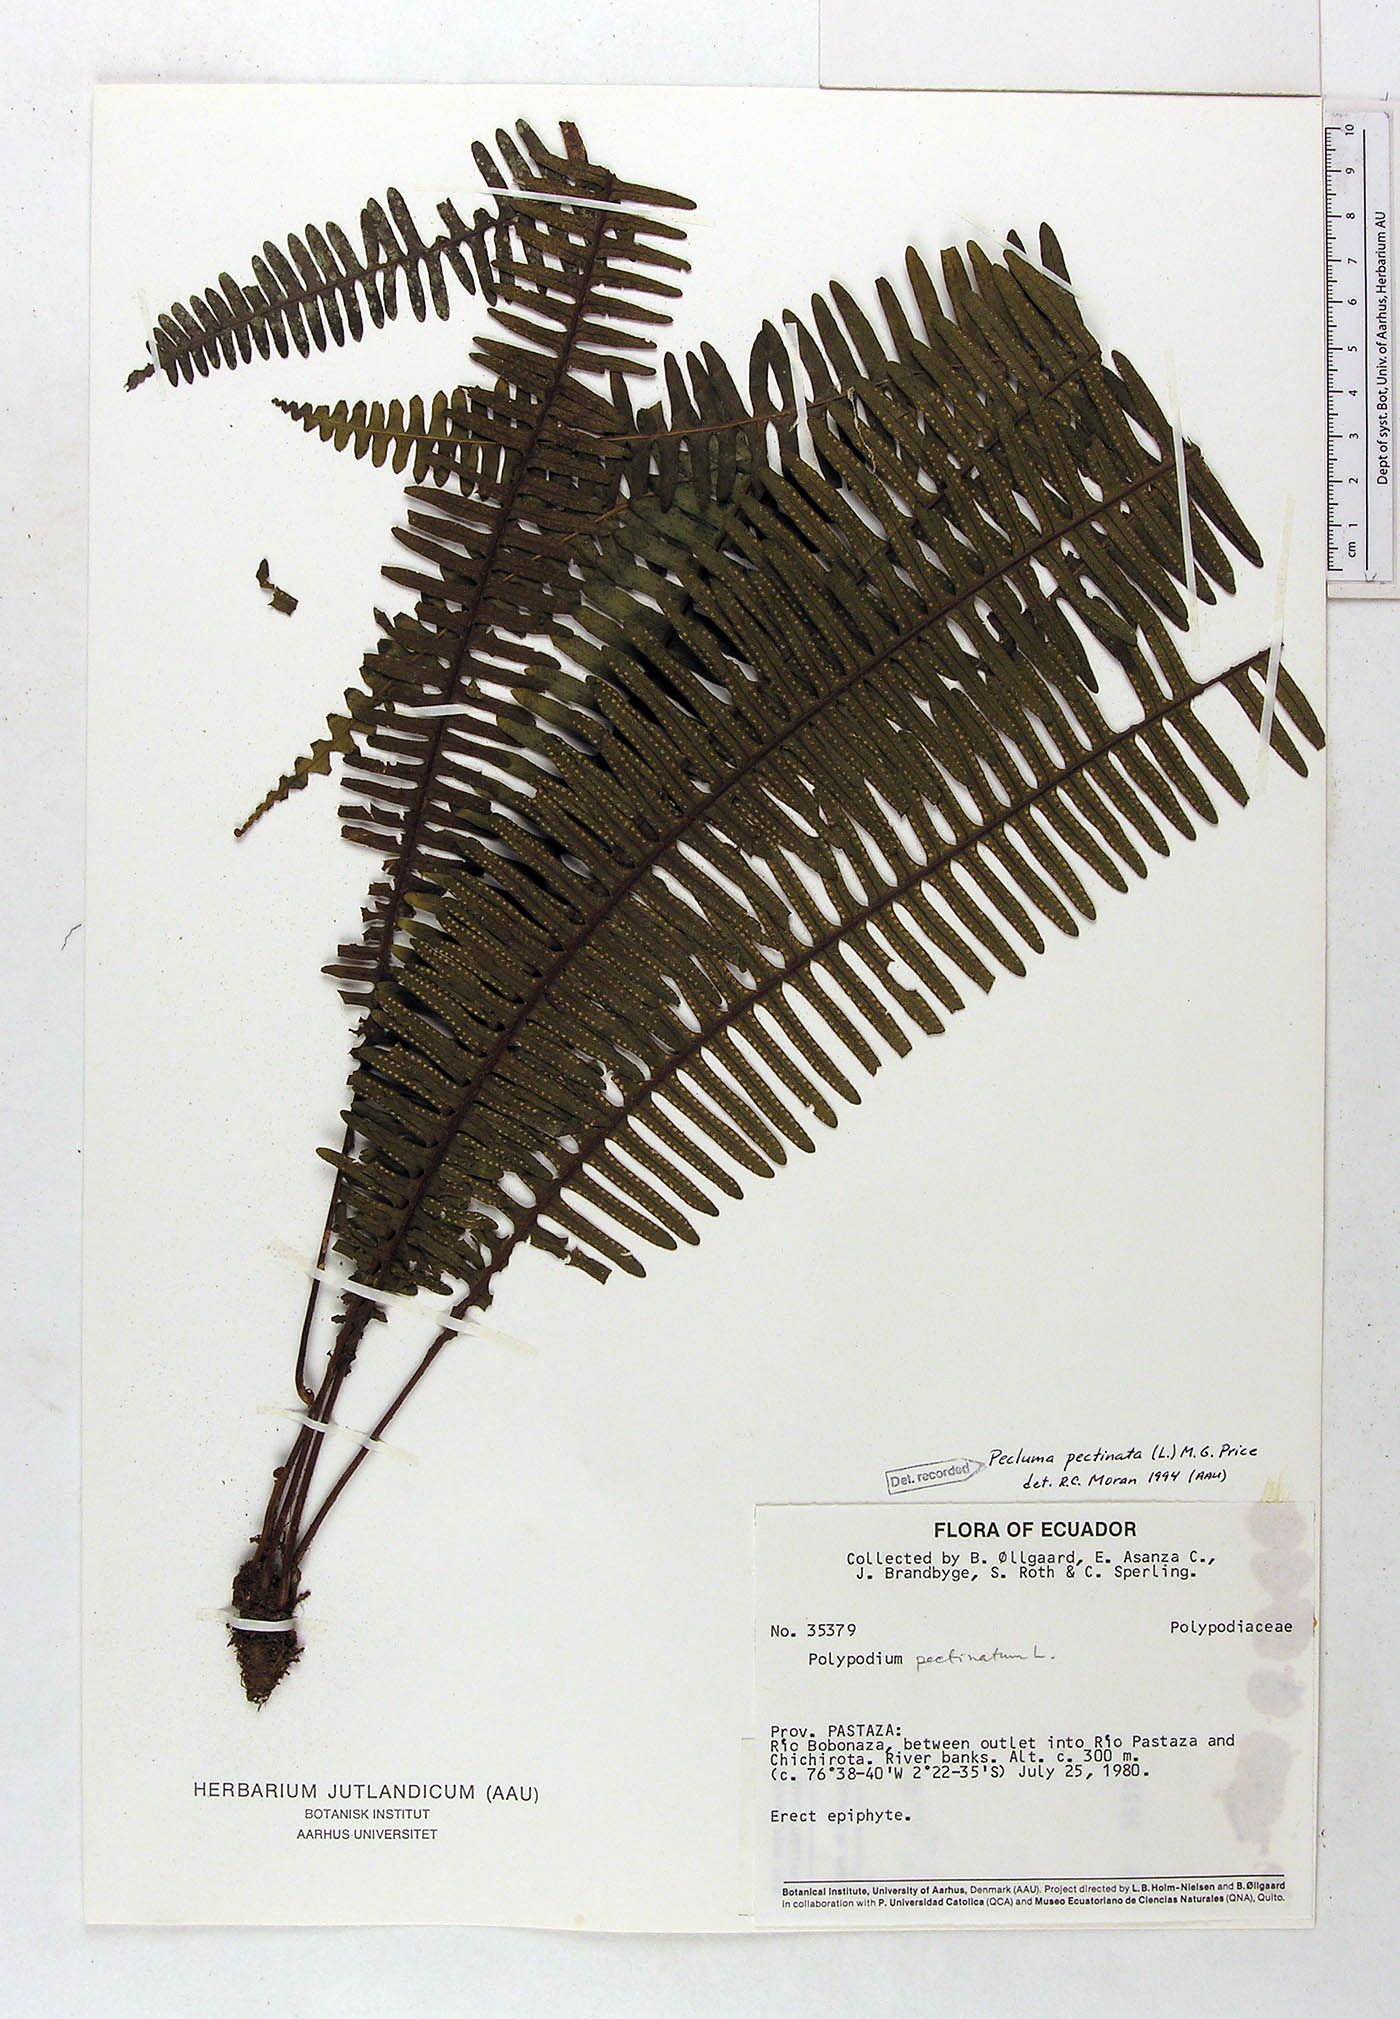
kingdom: Plantae
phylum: Tracheophyta
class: Polypodiopsida
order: Polypodiales
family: Polypodiaceae
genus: Pecluma
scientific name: Pecluma pectinata
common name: Msasa fern
